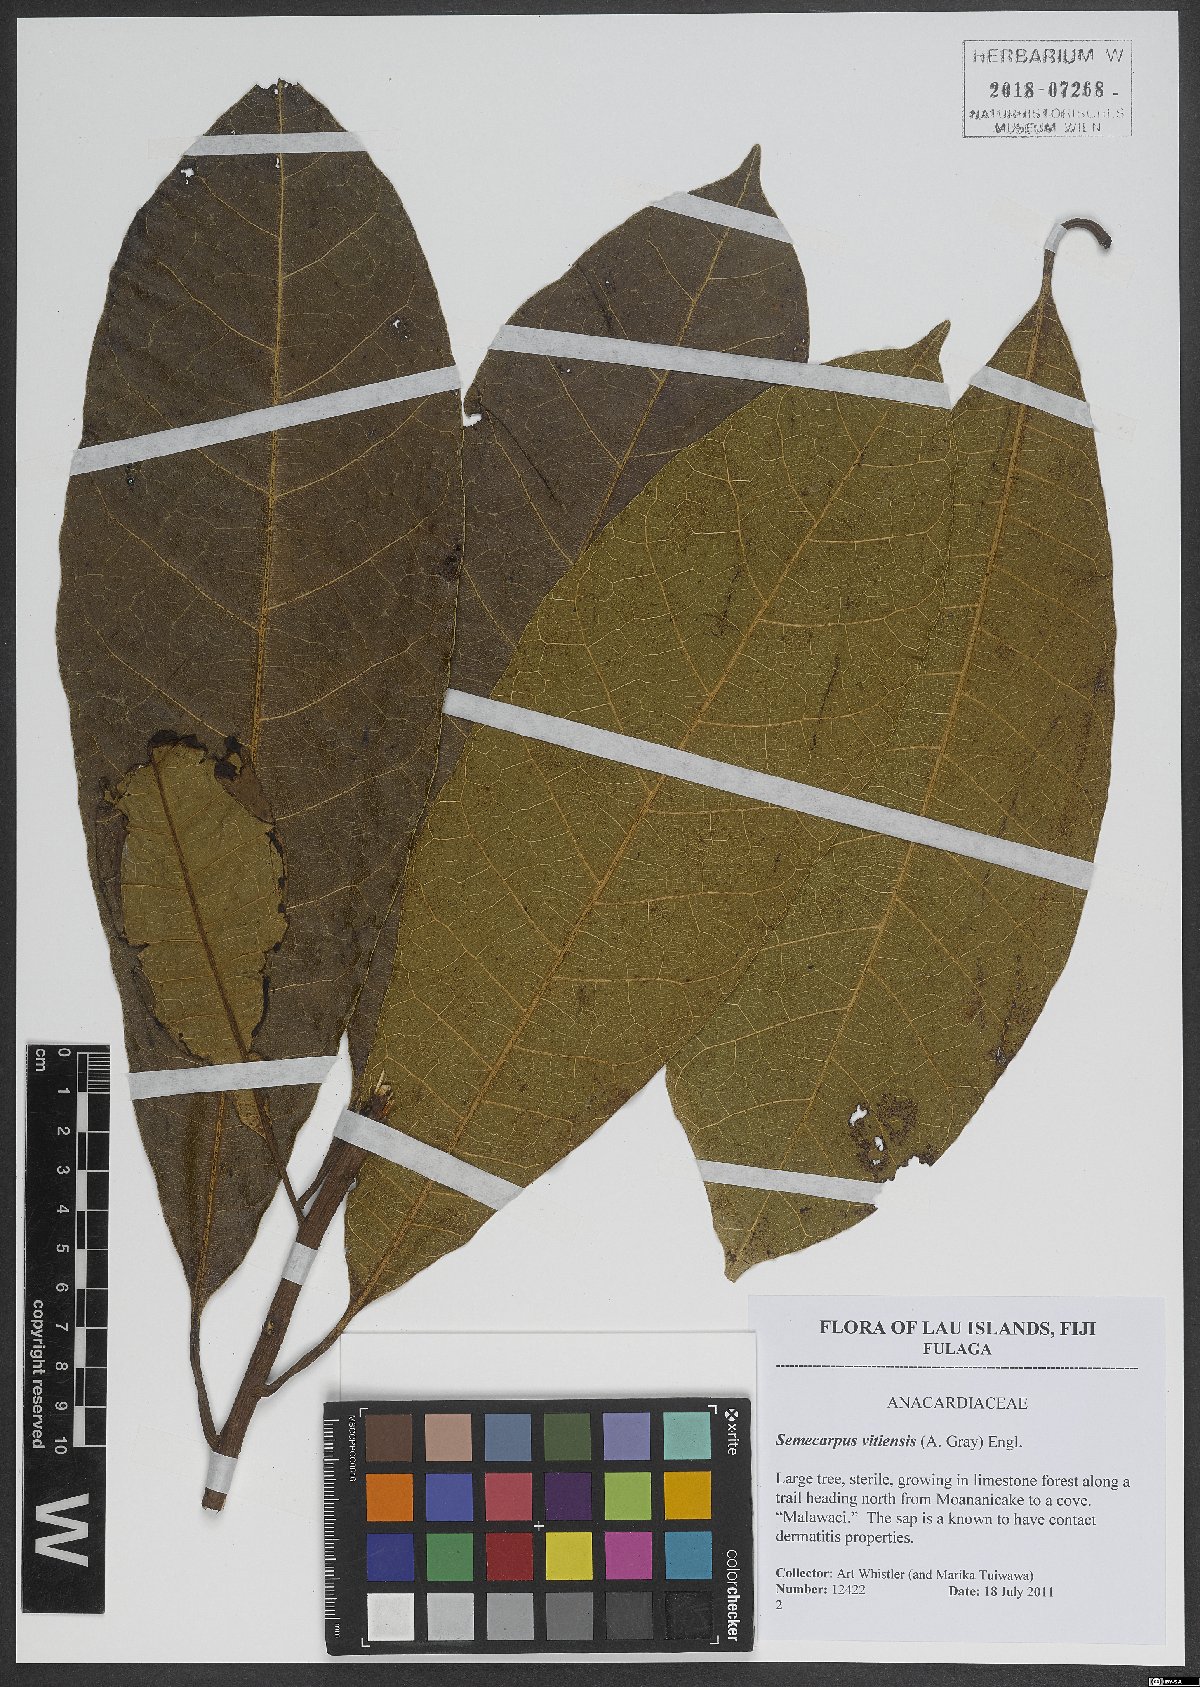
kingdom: Plantae
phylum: Tracheophyta
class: Magnoliopsida
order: Sapindales
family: Anacardiaceae
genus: Semecarpus
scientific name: Semecarpus vitiensis
